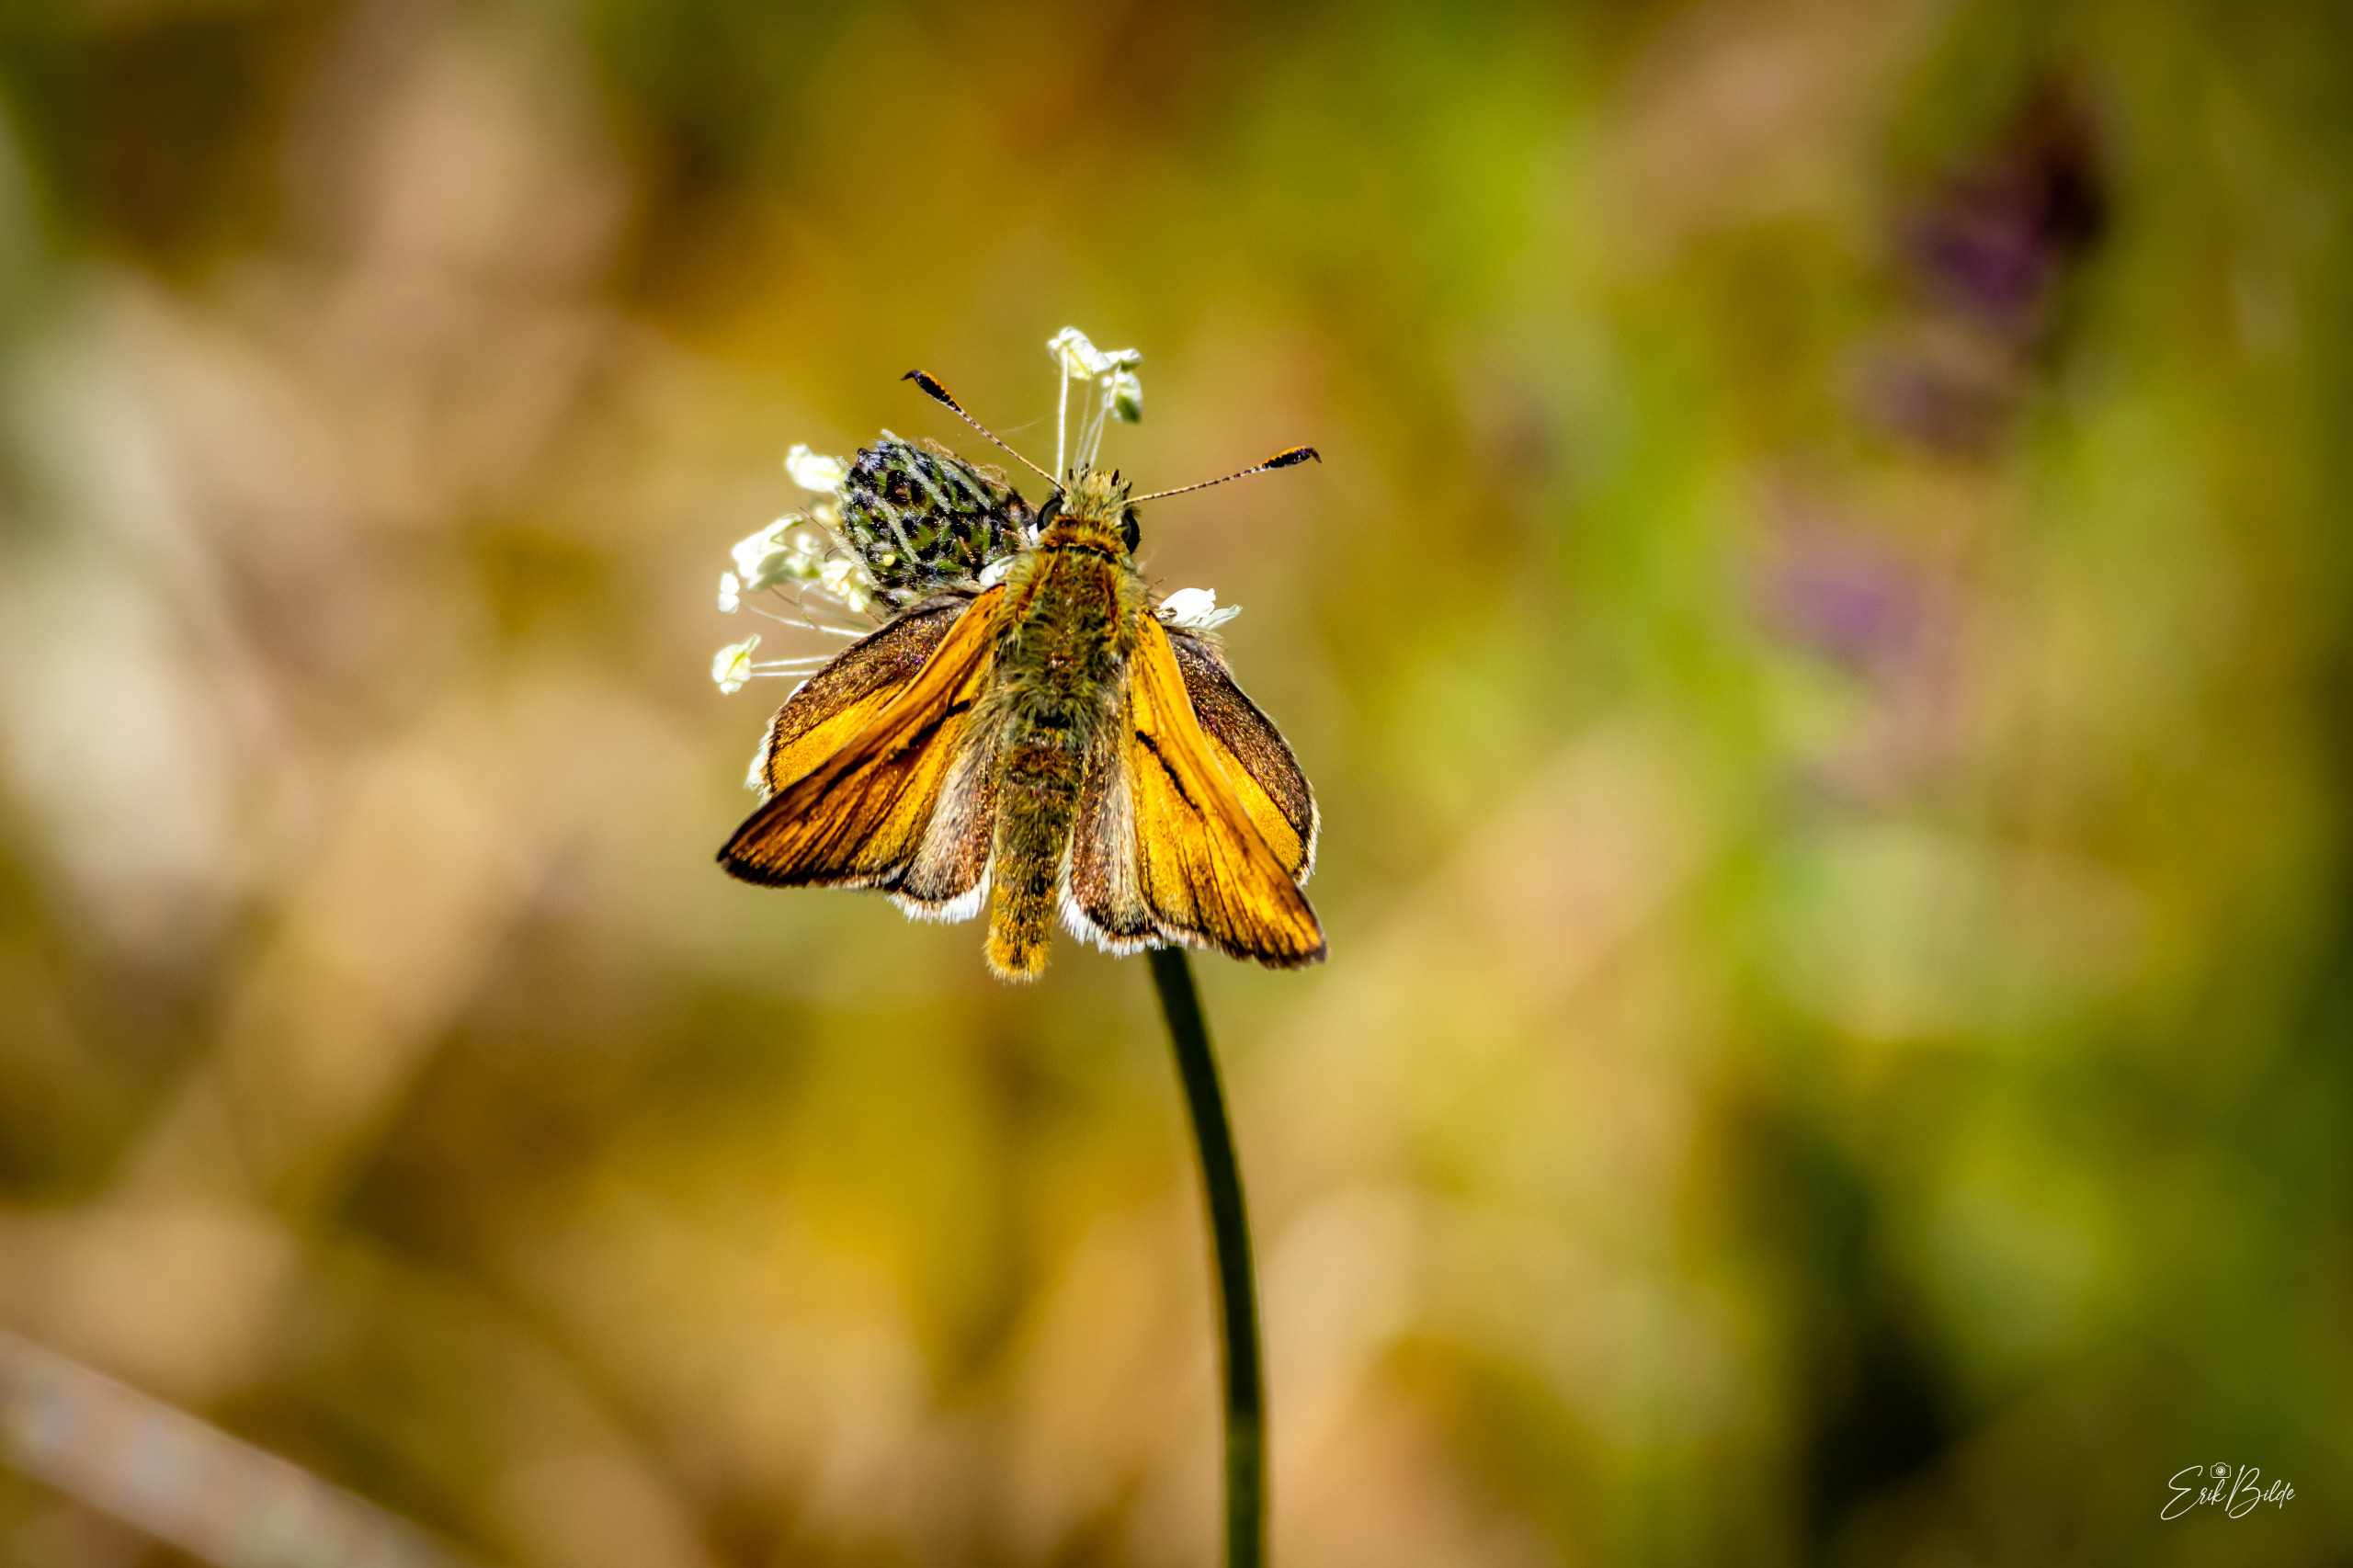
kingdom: Animalia
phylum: Arthropoda
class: Insecta
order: Lepidoptera
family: Hesperiidae
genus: Ochlodes
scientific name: Ochlodes venata
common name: Stor bredpande
